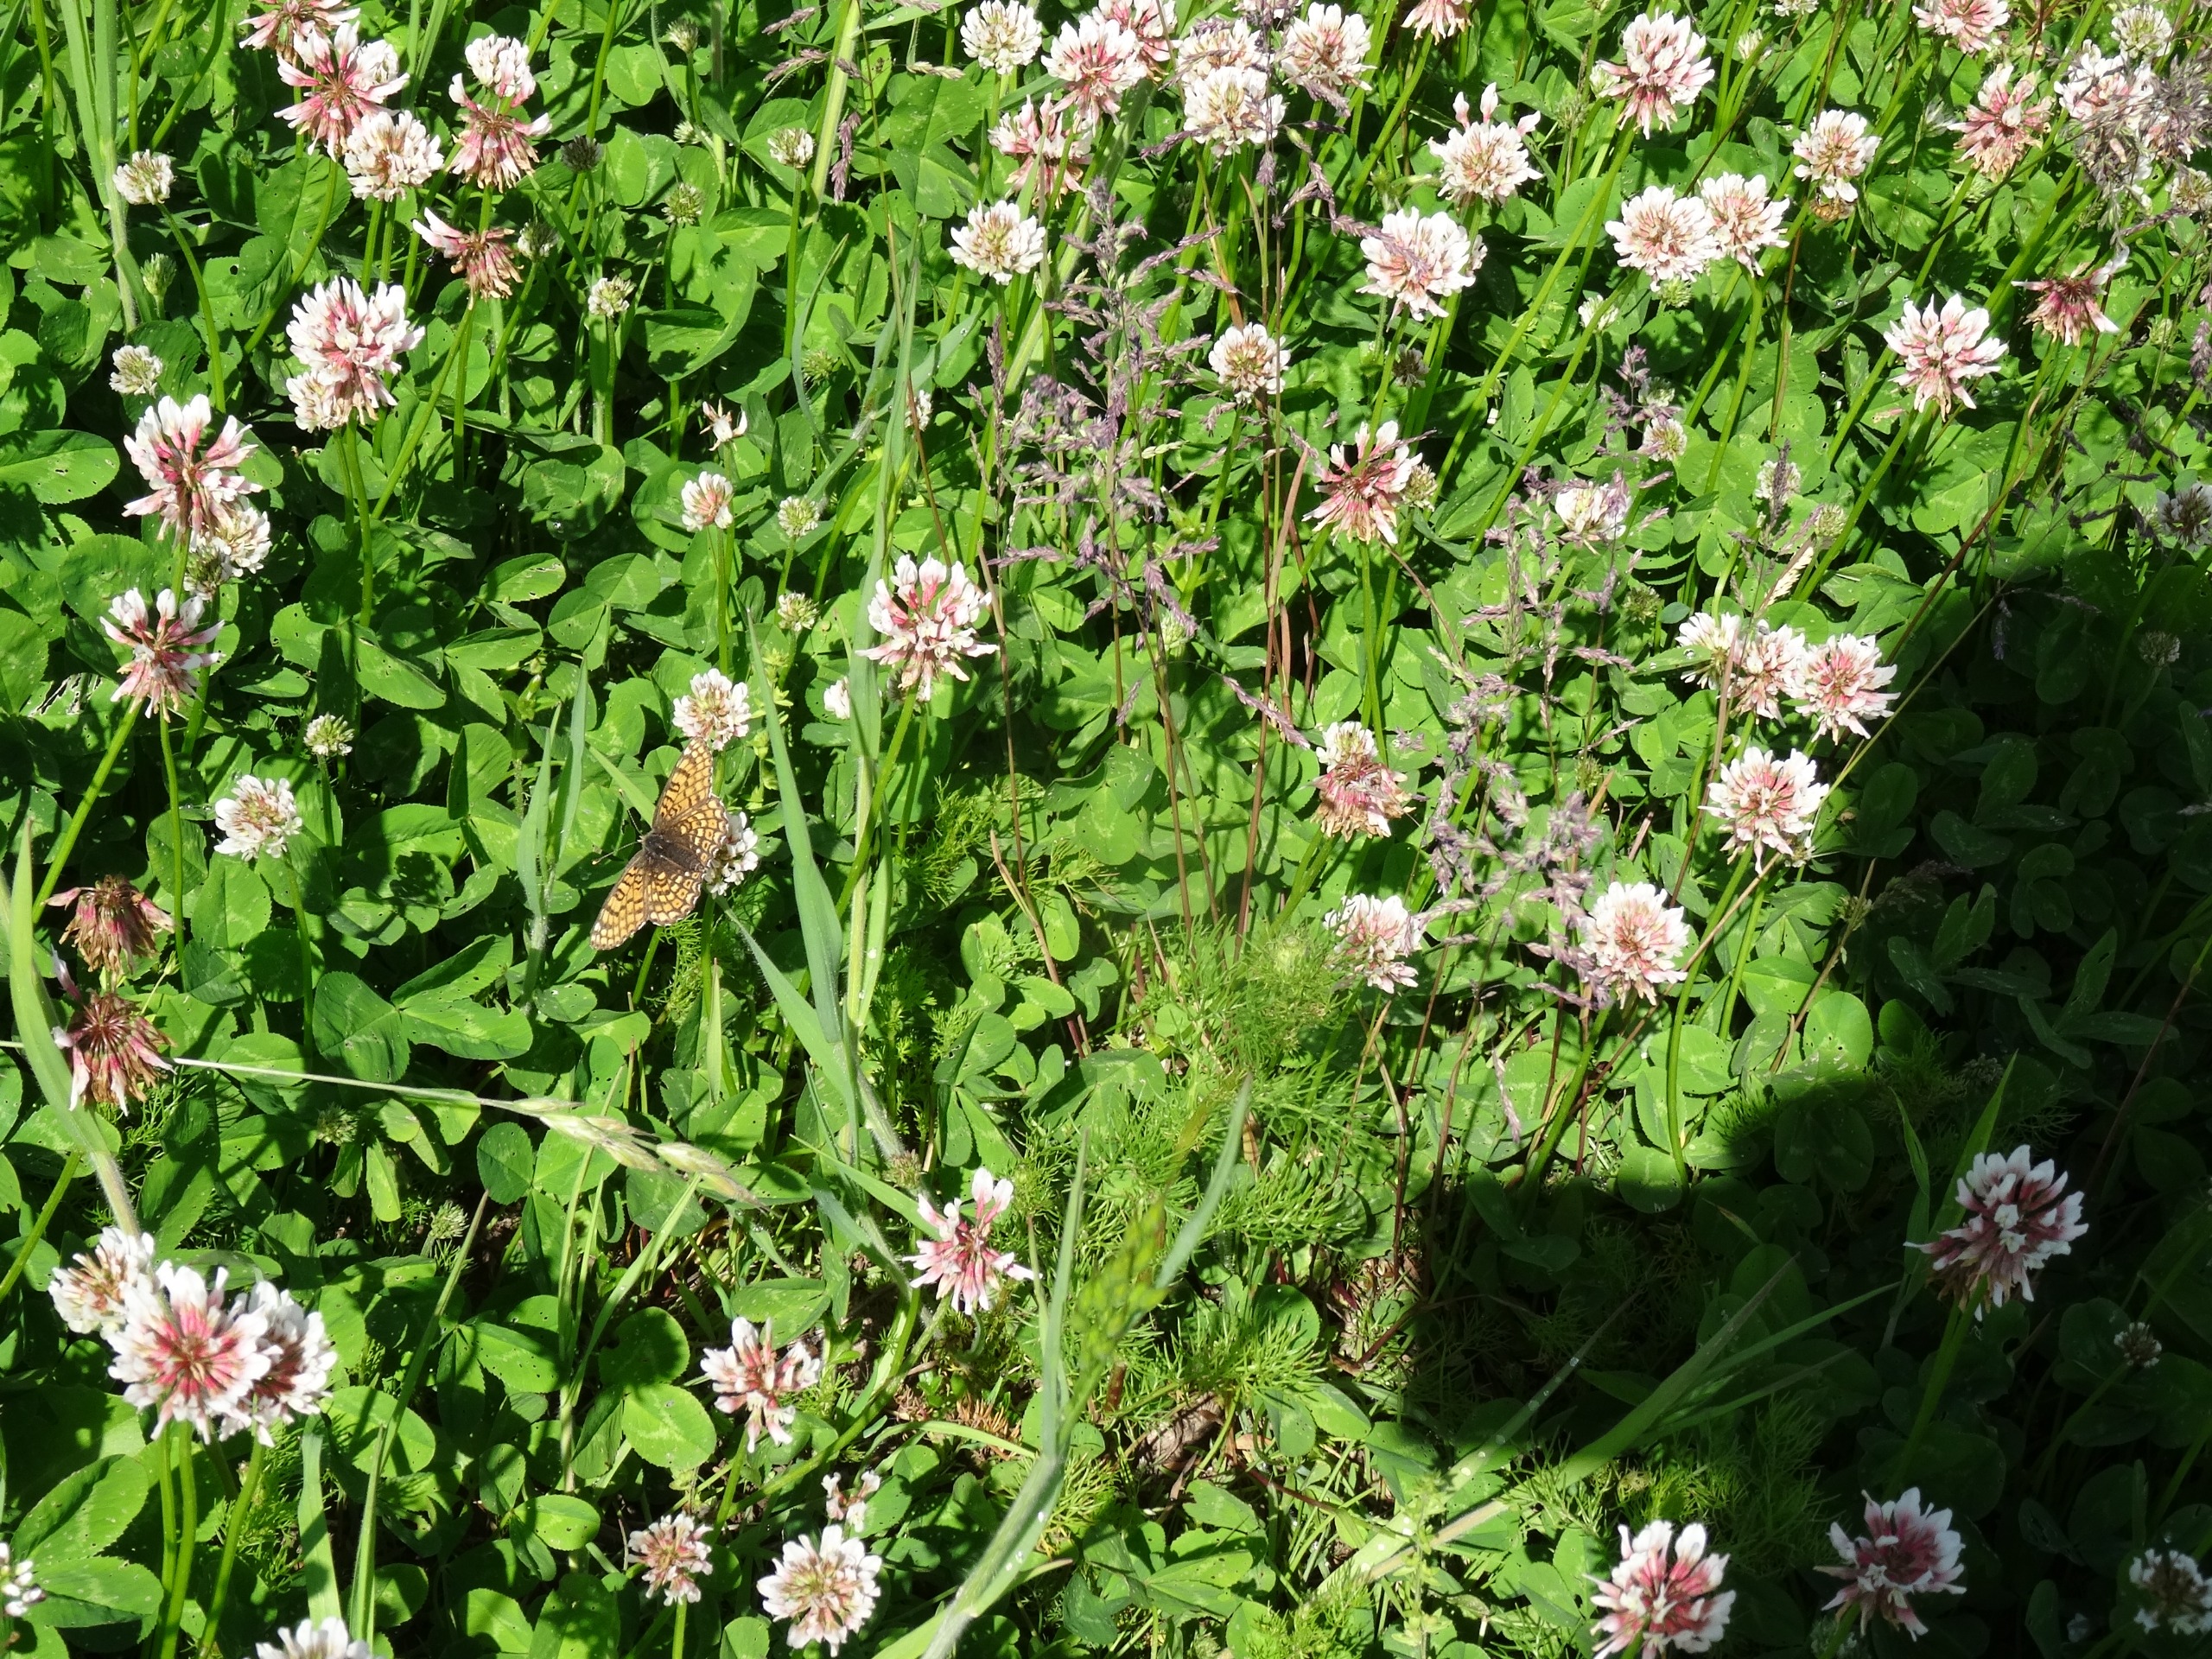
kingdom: Animalia
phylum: Arthropoda
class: Insecta
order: Lepidoptera
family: Nymphalidae
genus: Melitaea
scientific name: Melitaea cinxia
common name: Okkergul pletvinge
